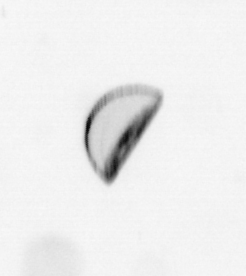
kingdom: Chromista
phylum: Ochrophyta
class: Bacillariophyceae
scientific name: Bacillariophyceae
